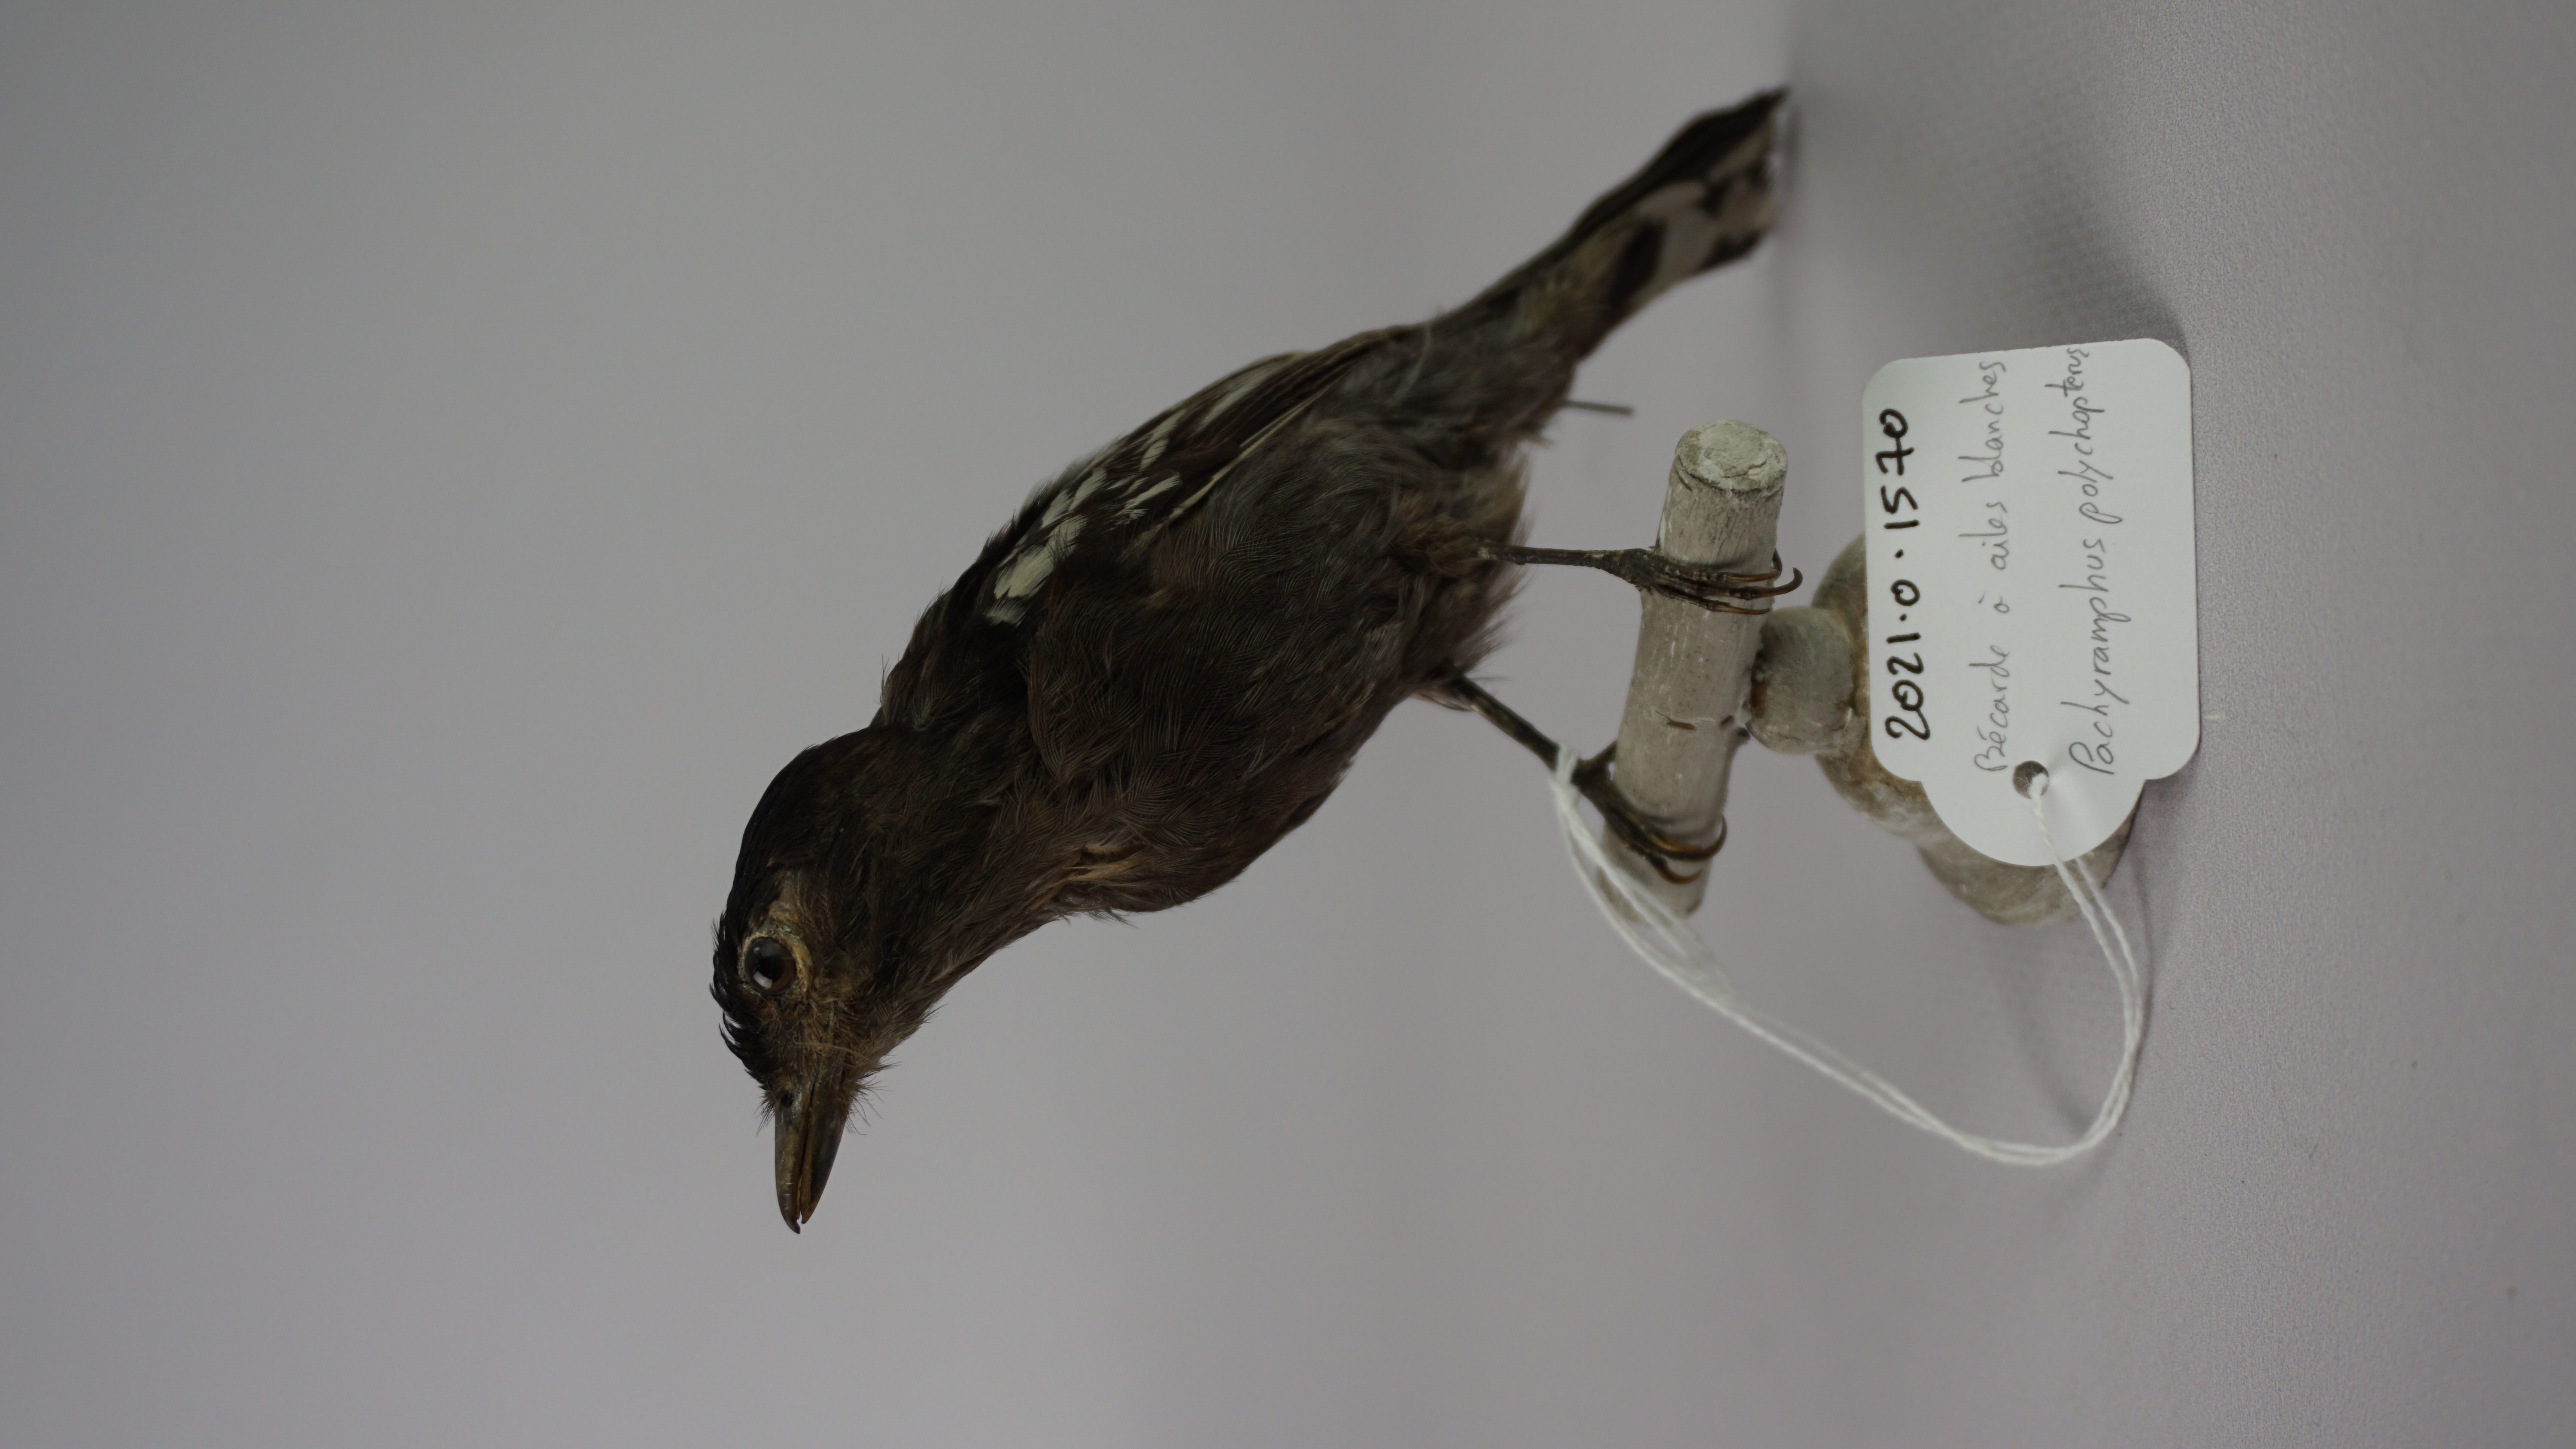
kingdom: Animalia
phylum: Chordata
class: Aves
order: Passeriformes
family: Cotingidae
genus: Pachyramphus
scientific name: Pachyramphus polychopterus
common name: White-winged becard
